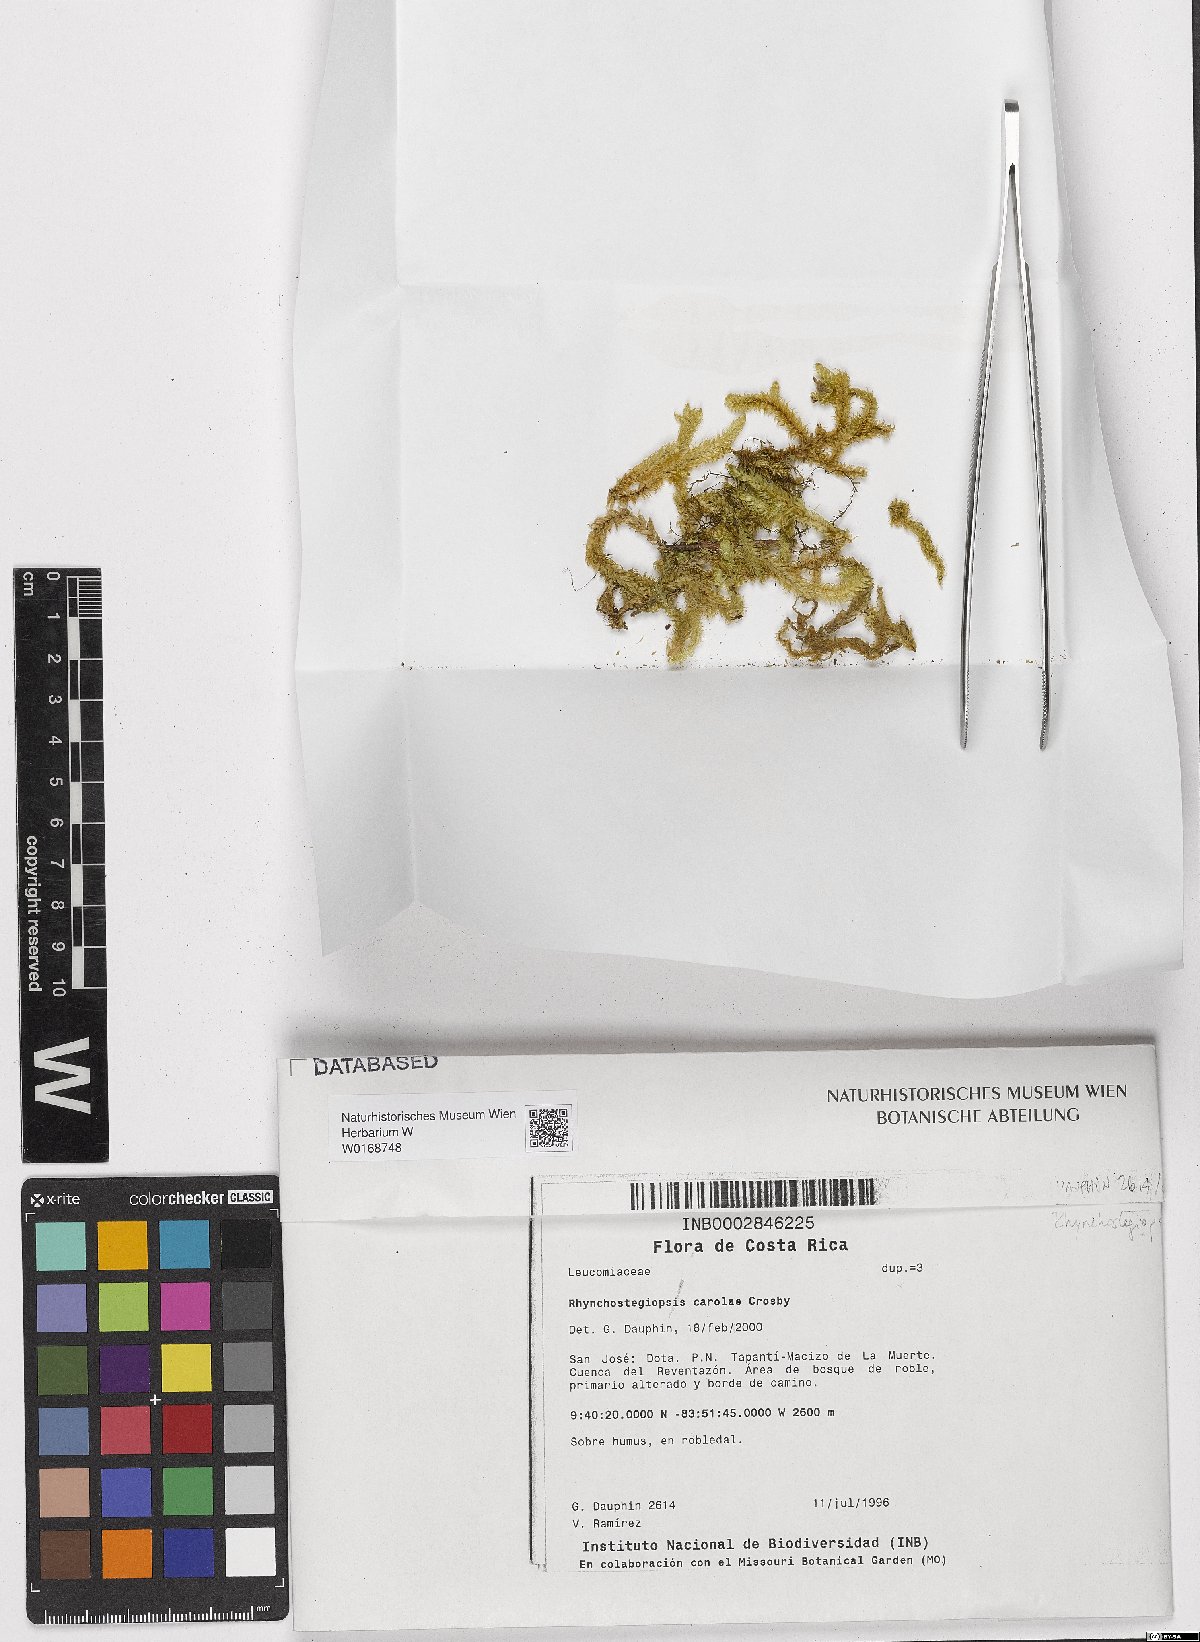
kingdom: Plantae
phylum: Bryophyta
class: Bryopsida
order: Hookeriales
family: Leucomiaceae
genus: Rhynchostegiopsis
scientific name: Rhynchostegiopsis carolae
